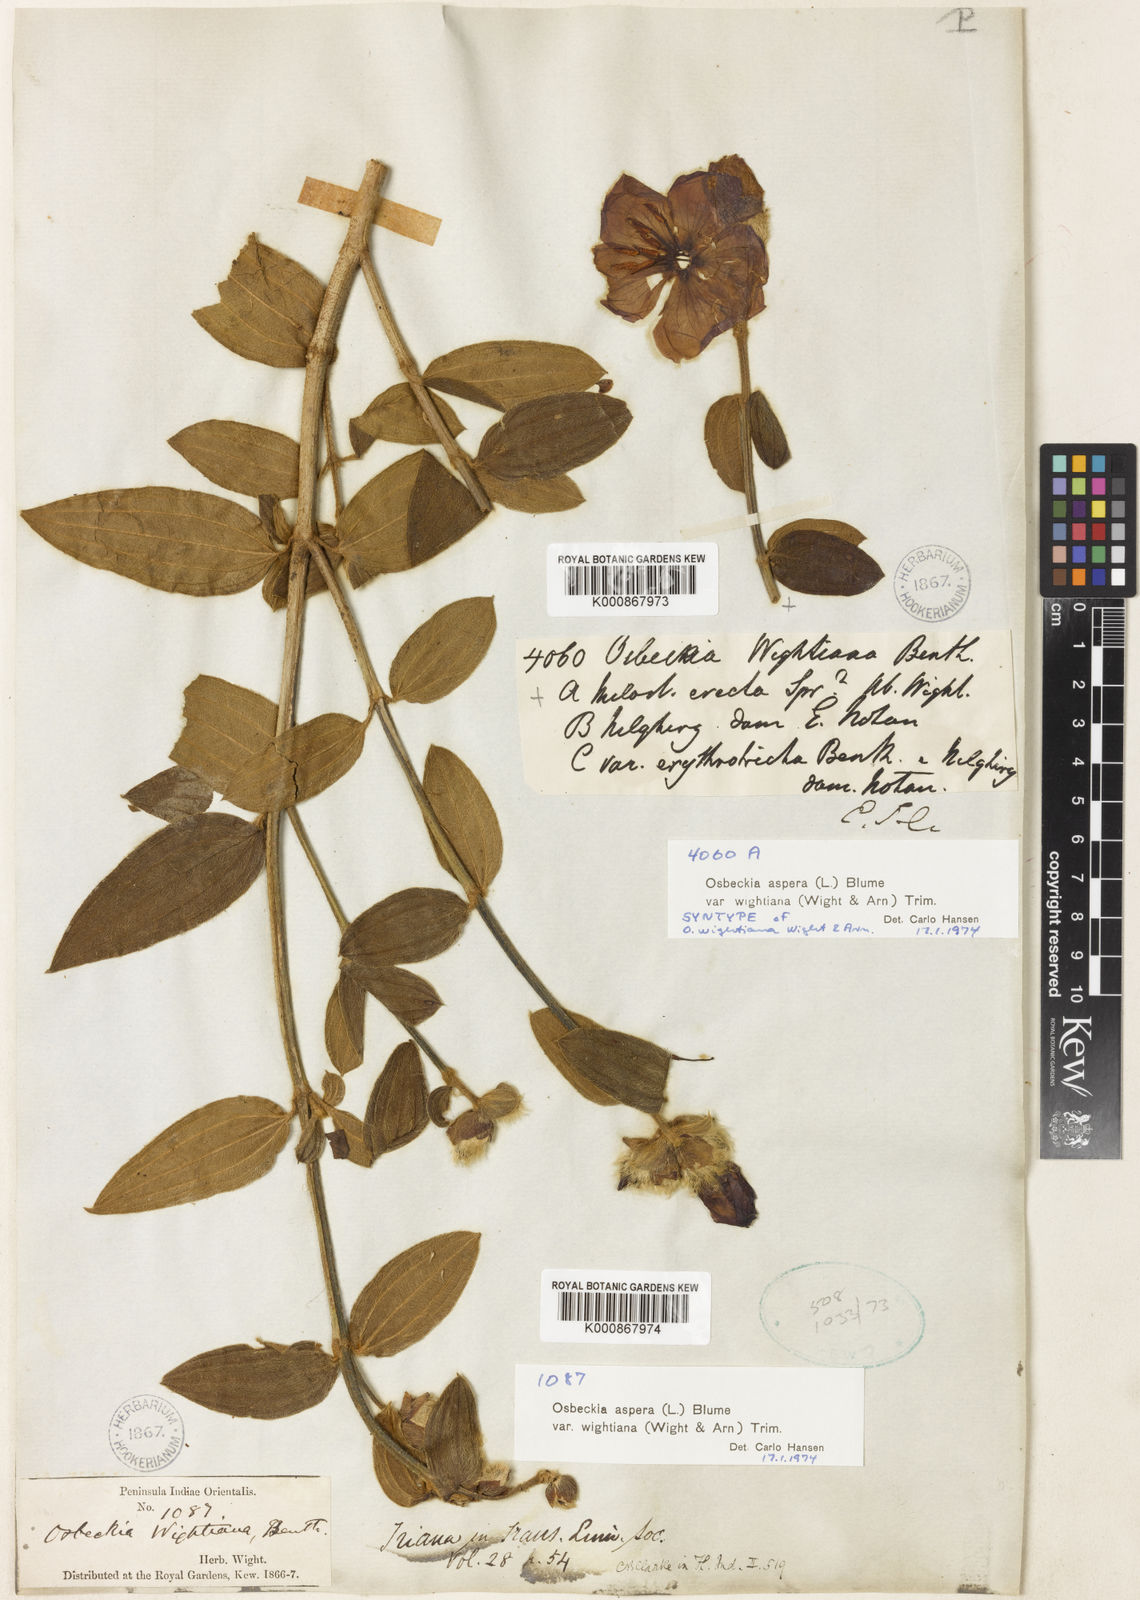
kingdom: Plantae
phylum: Tracheophyta
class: Magnoliopsida
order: Myrtales
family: Melastomataceae
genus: Osbeckia
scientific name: Osbeckia
